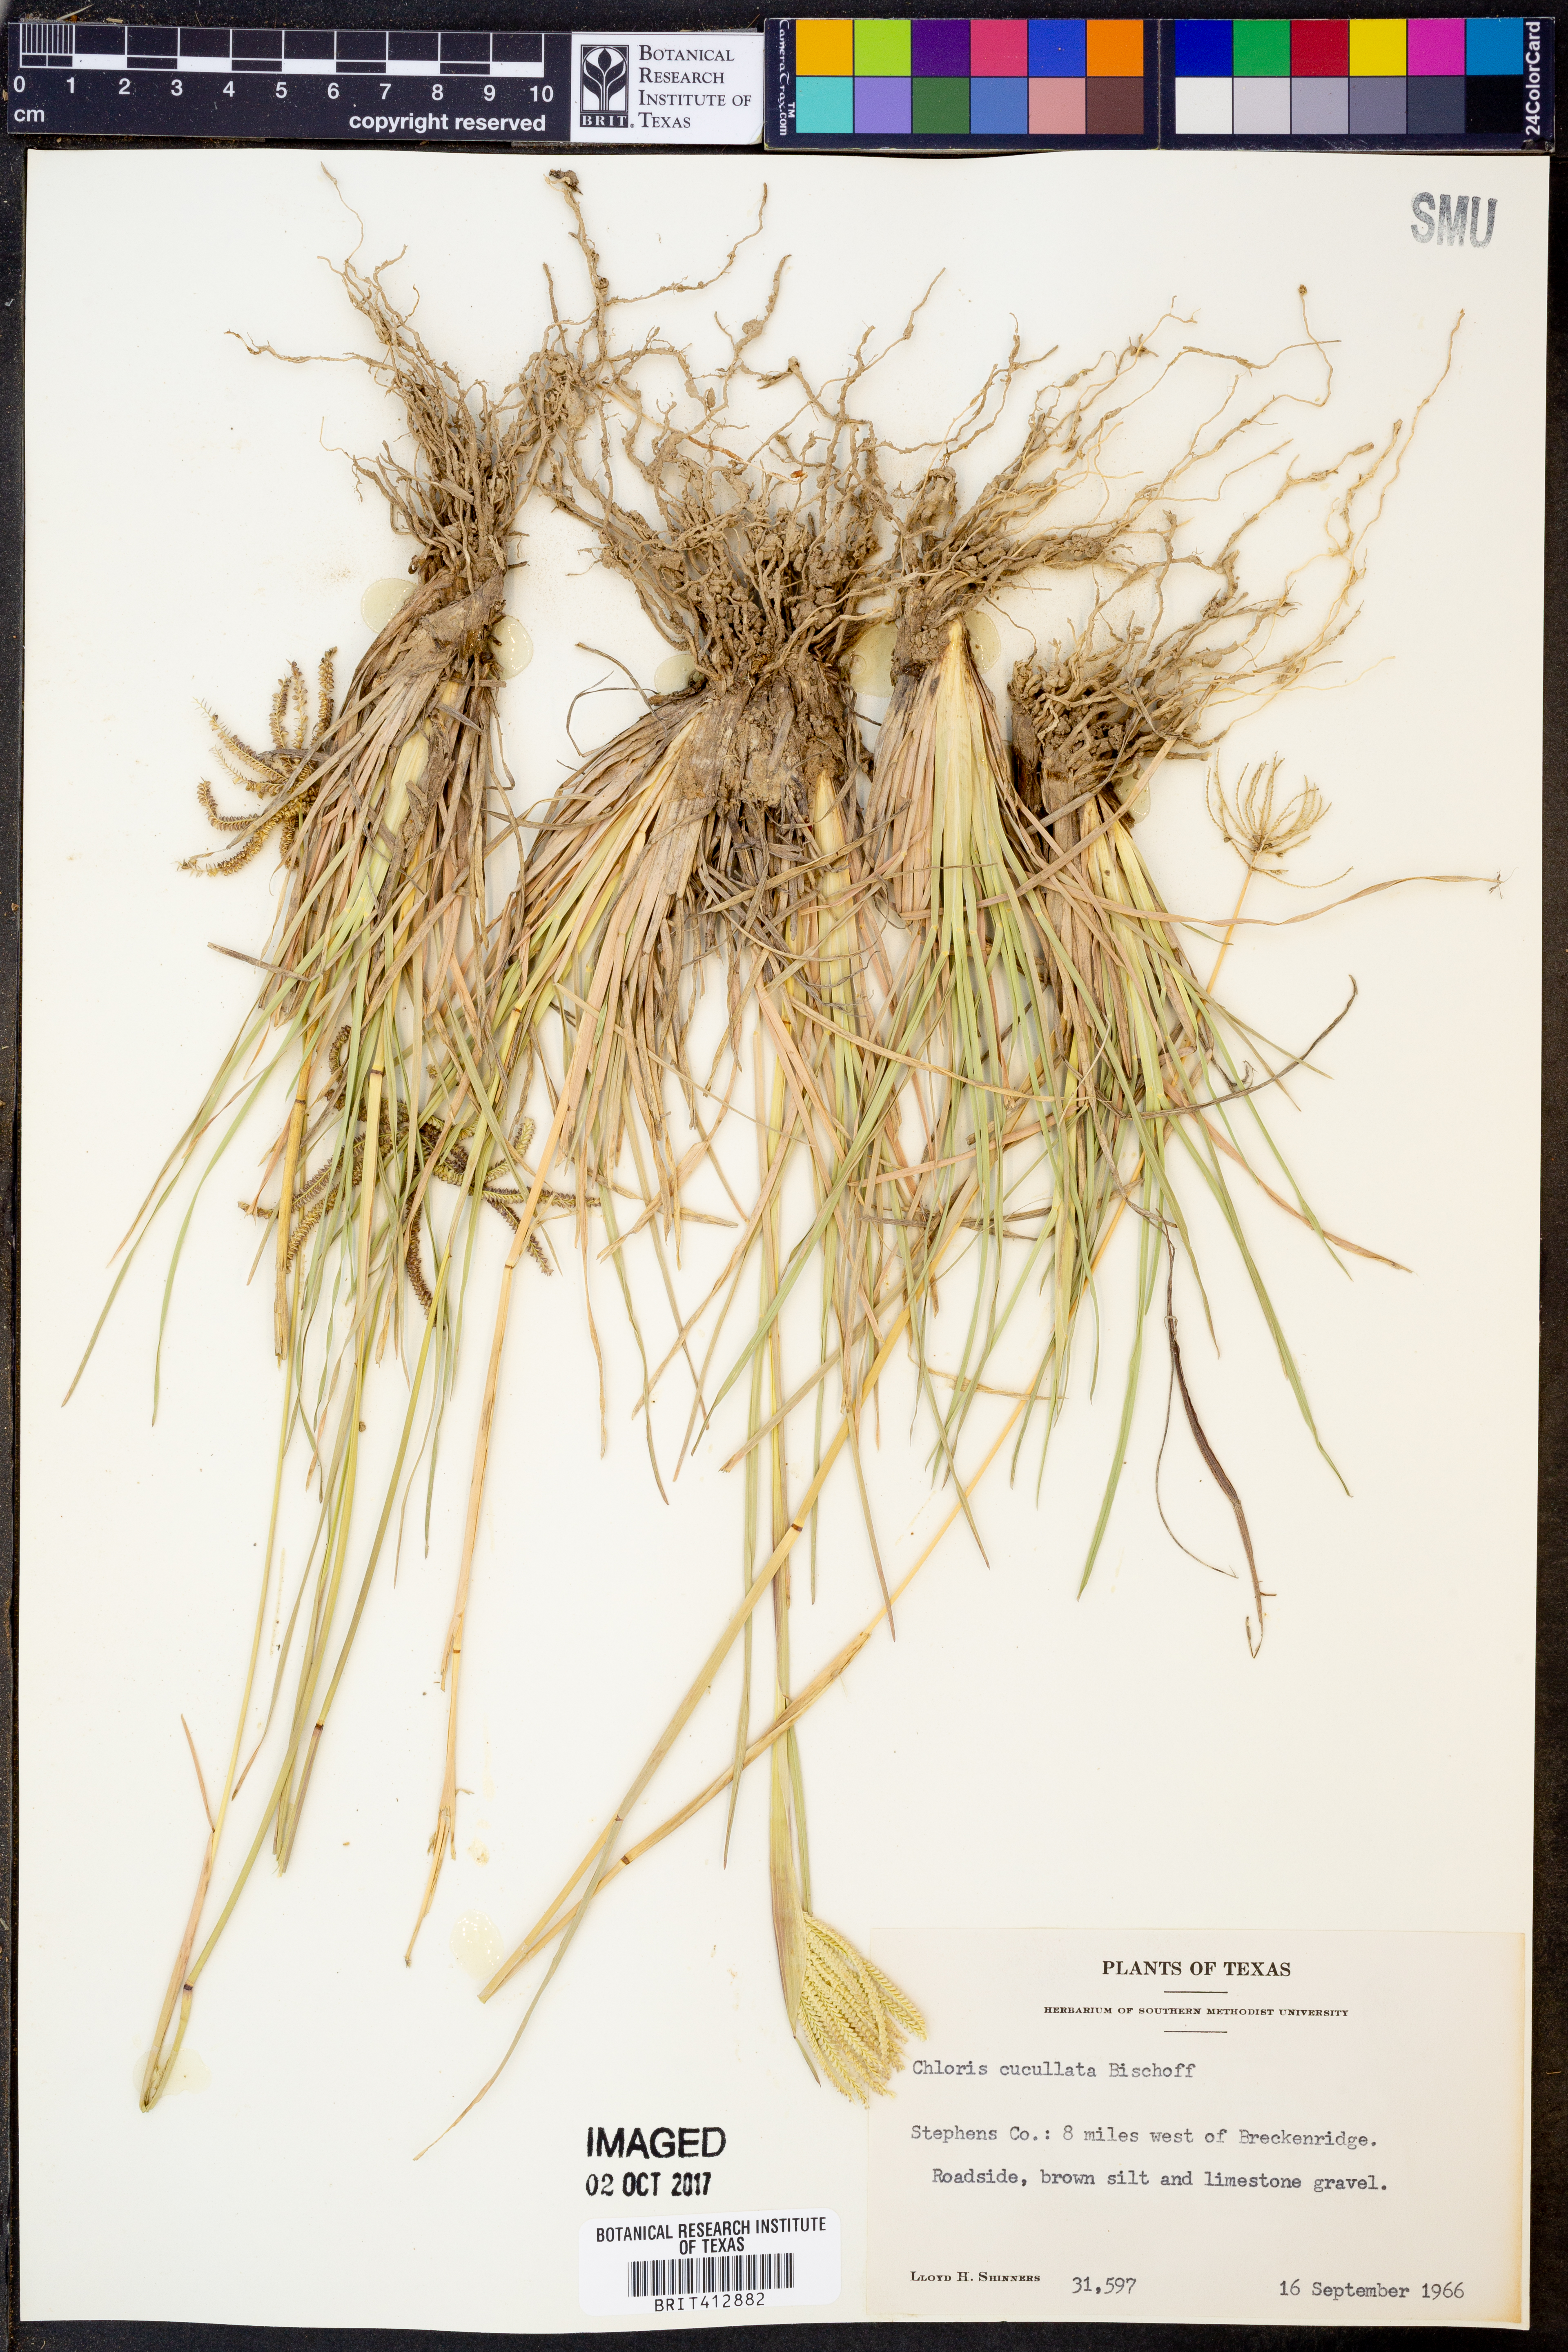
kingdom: Plantae
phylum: Tracheophyta
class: Liliopsida
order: Poales
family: Poaceae
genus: Chloris
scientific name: Chloris cucullata
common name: Hooded windmill grass
